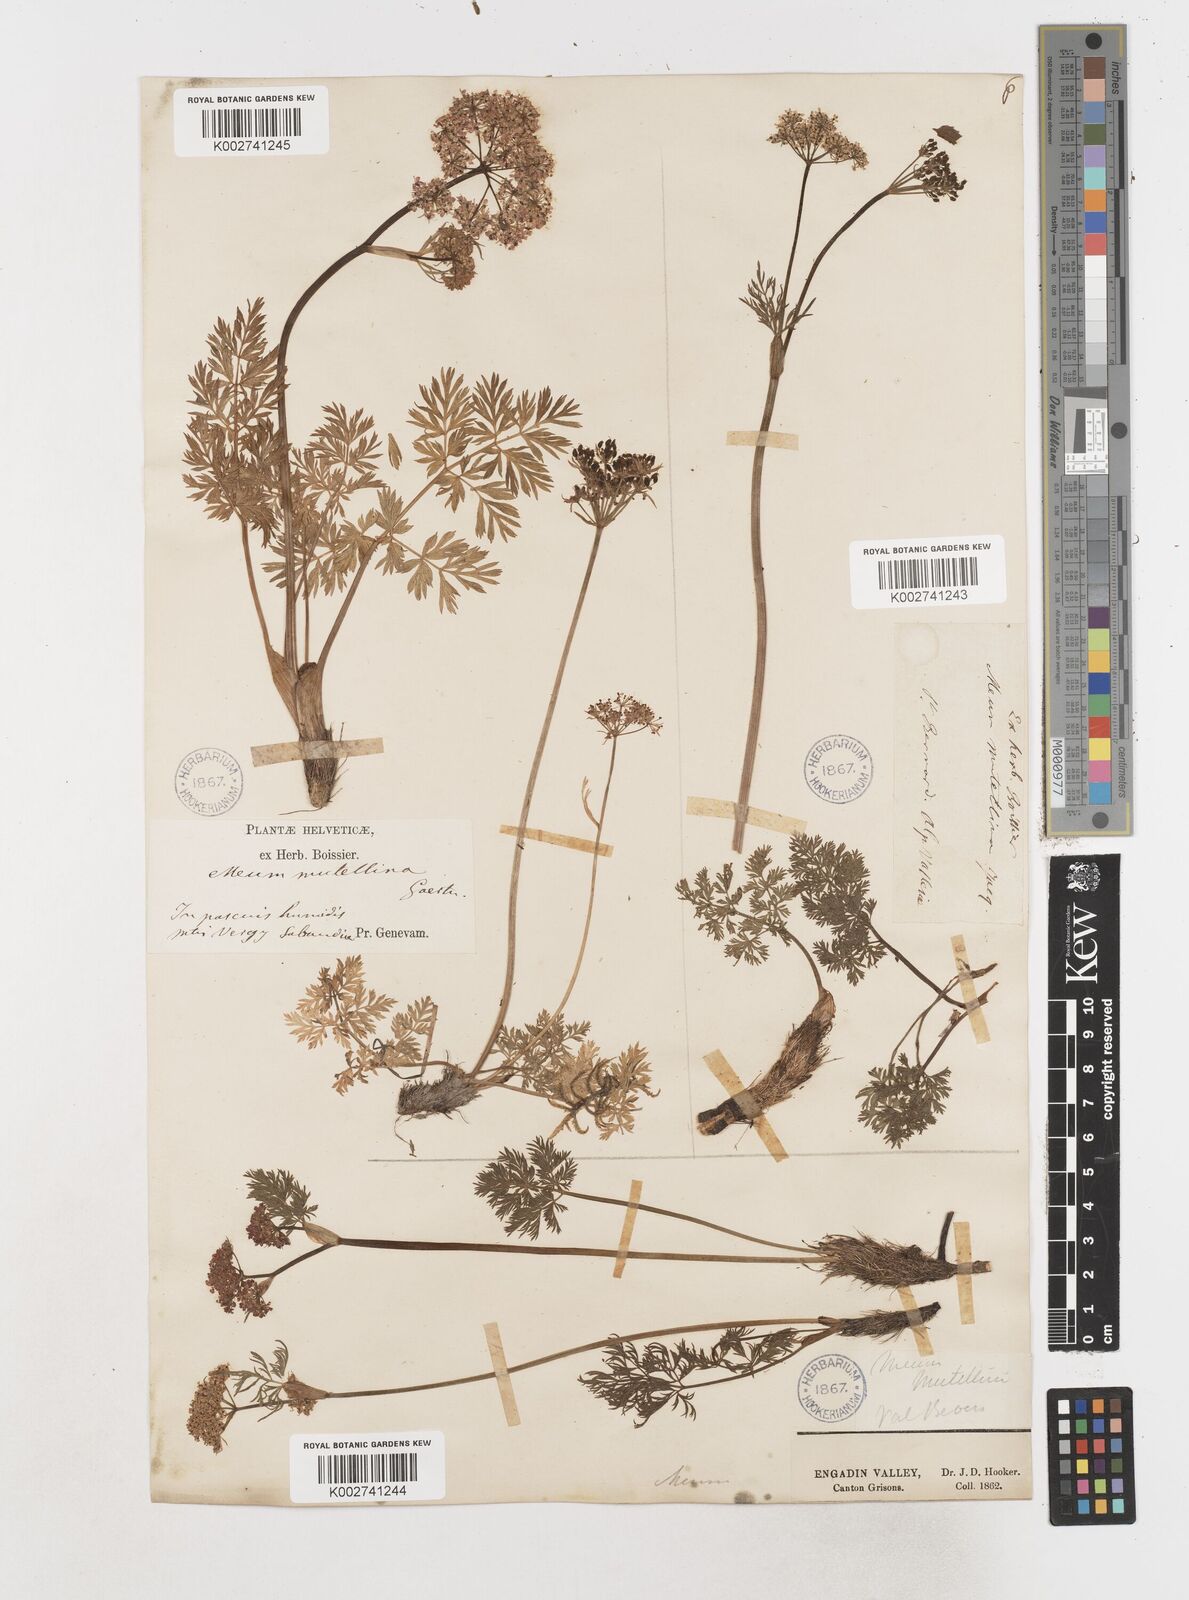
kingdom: Plantae
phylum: Tracheophyta
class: Magnoliopsida
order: Apiales
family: Apiaceae
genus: Mutellina
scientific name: Mutellina adonidifolia
